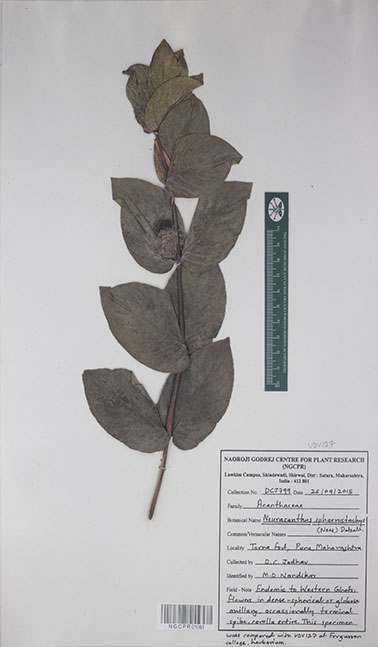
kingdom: Plantae
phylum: Tracheophyta
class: Magnoliopsida
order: Lamiales
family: Acanthaceae
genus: Neuracanthus
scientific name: Neuracanthus sphaerostachys
